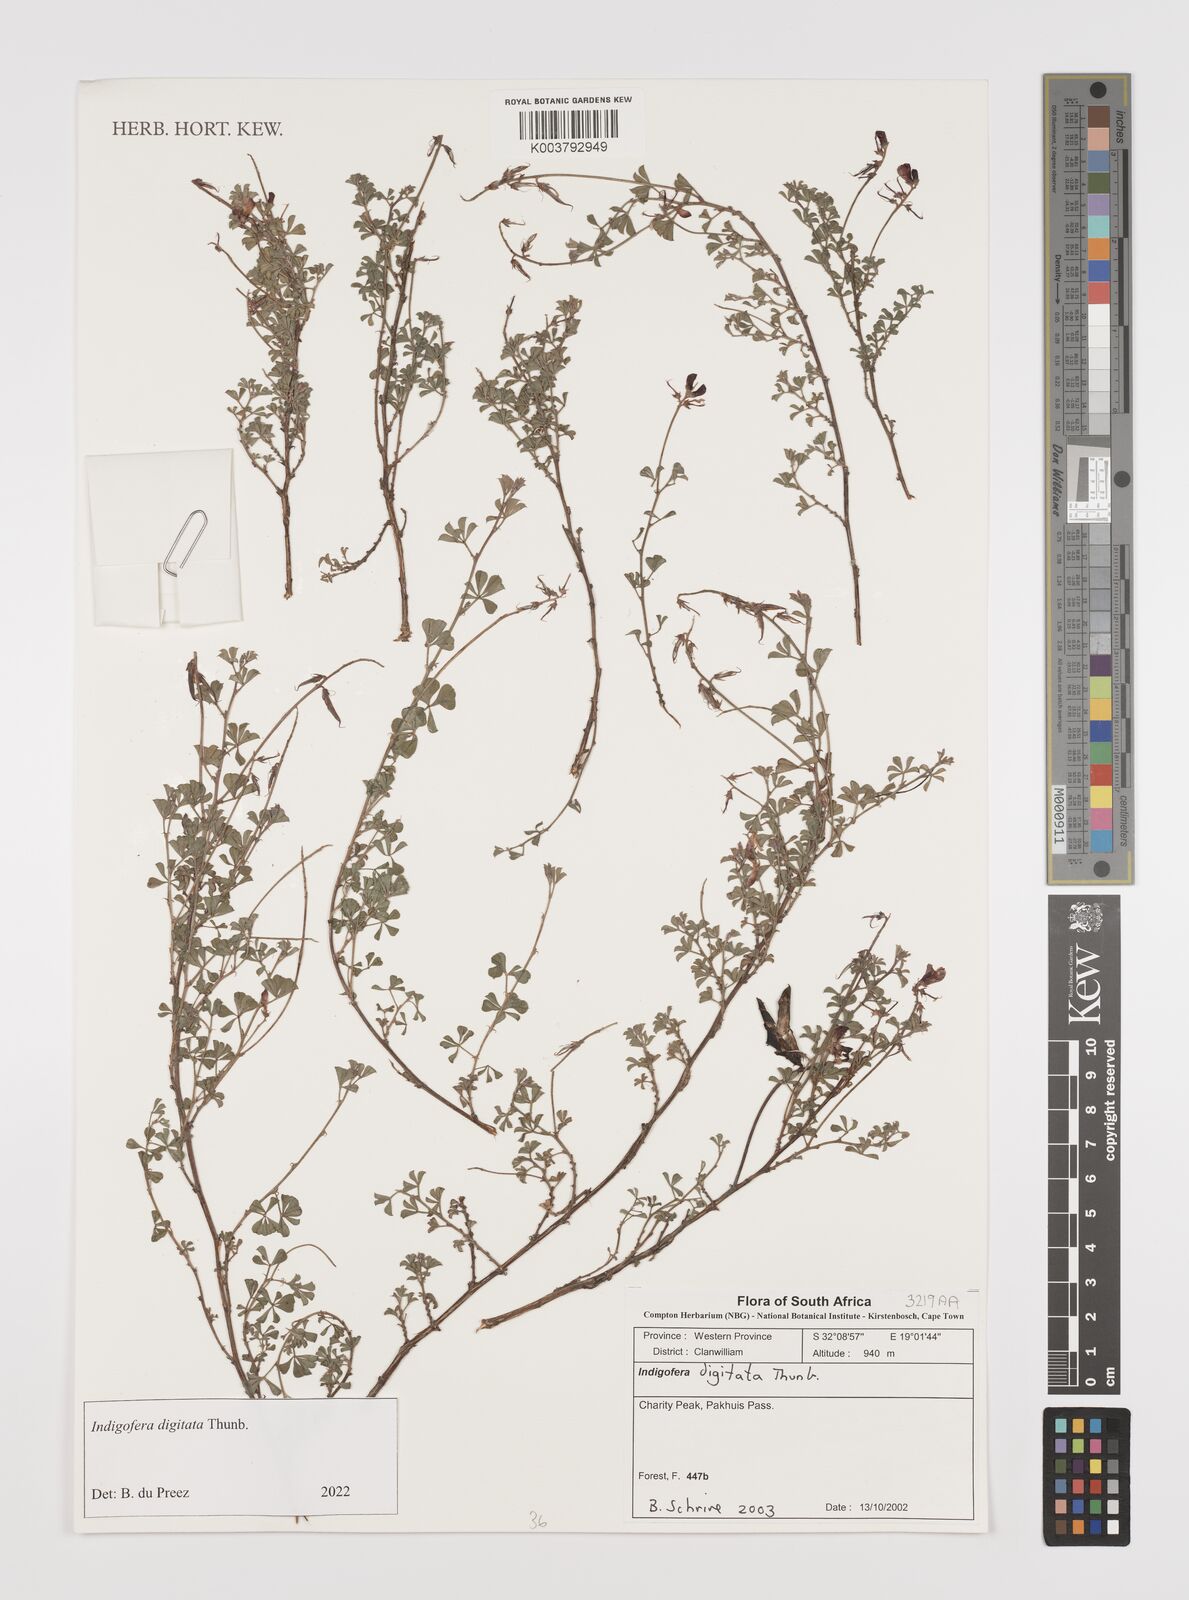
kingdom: Plantae
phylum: Tracheophyta
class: Magnoliopsida
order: Fabales
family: Fabaceae
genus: Indigofera
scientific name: Indigofera
